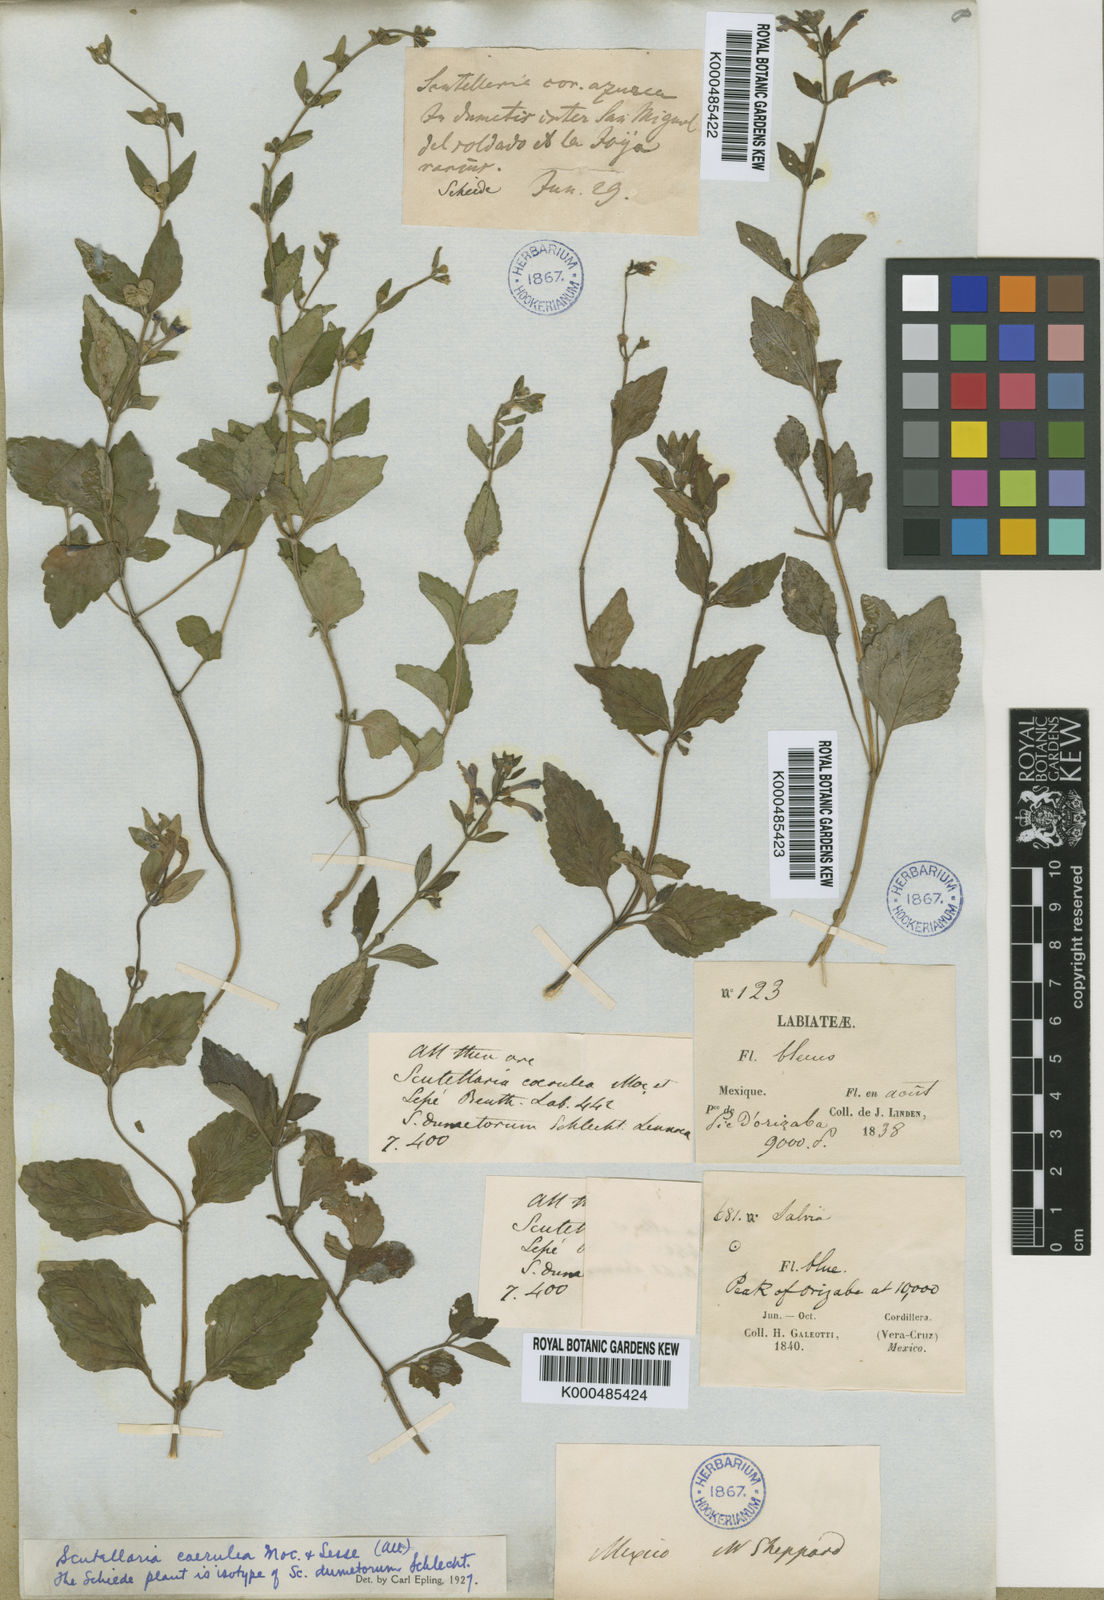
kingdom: Plantae
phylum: Tracheophyta
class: Magnoliopsida
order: Lamiales
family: Lamiaceae
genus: Scutellaria
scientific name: Scutellaria
